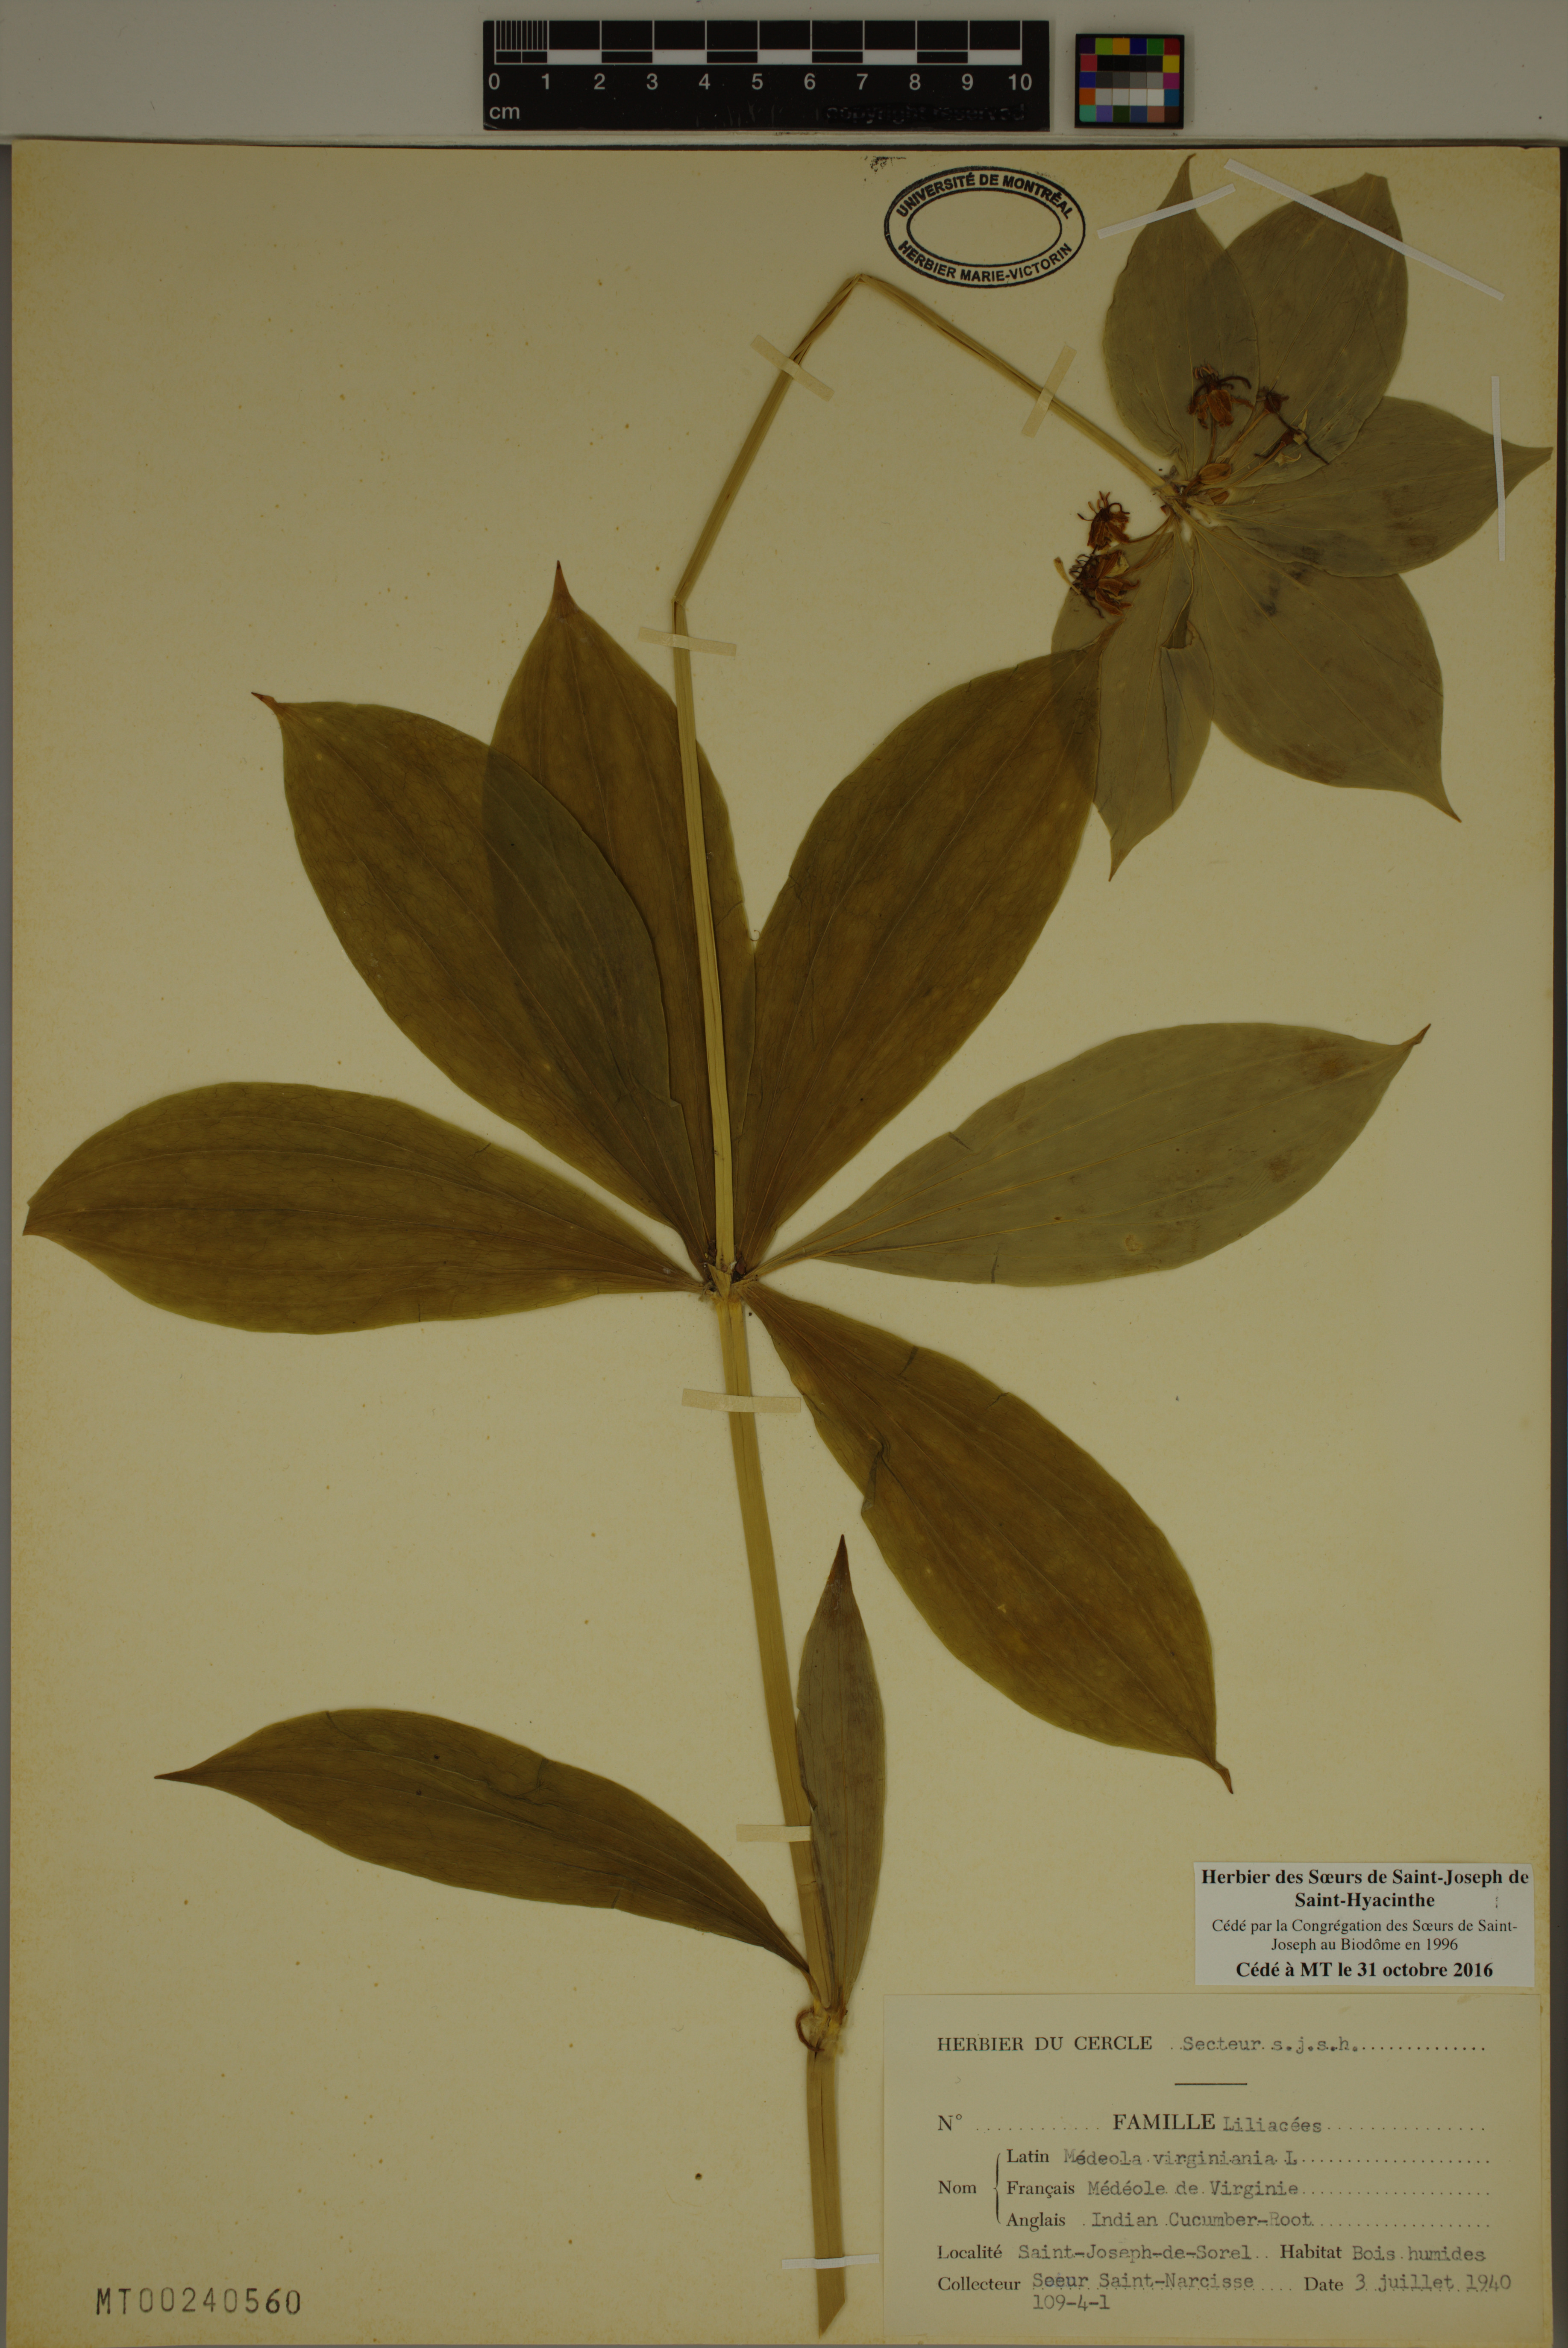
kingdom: Plantae
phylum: Tracheophyta
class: Liliopsida
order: Liliales
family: Liliaceae
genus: Medeola
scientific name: Medeola virginiana
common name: Indian cucumber-root
